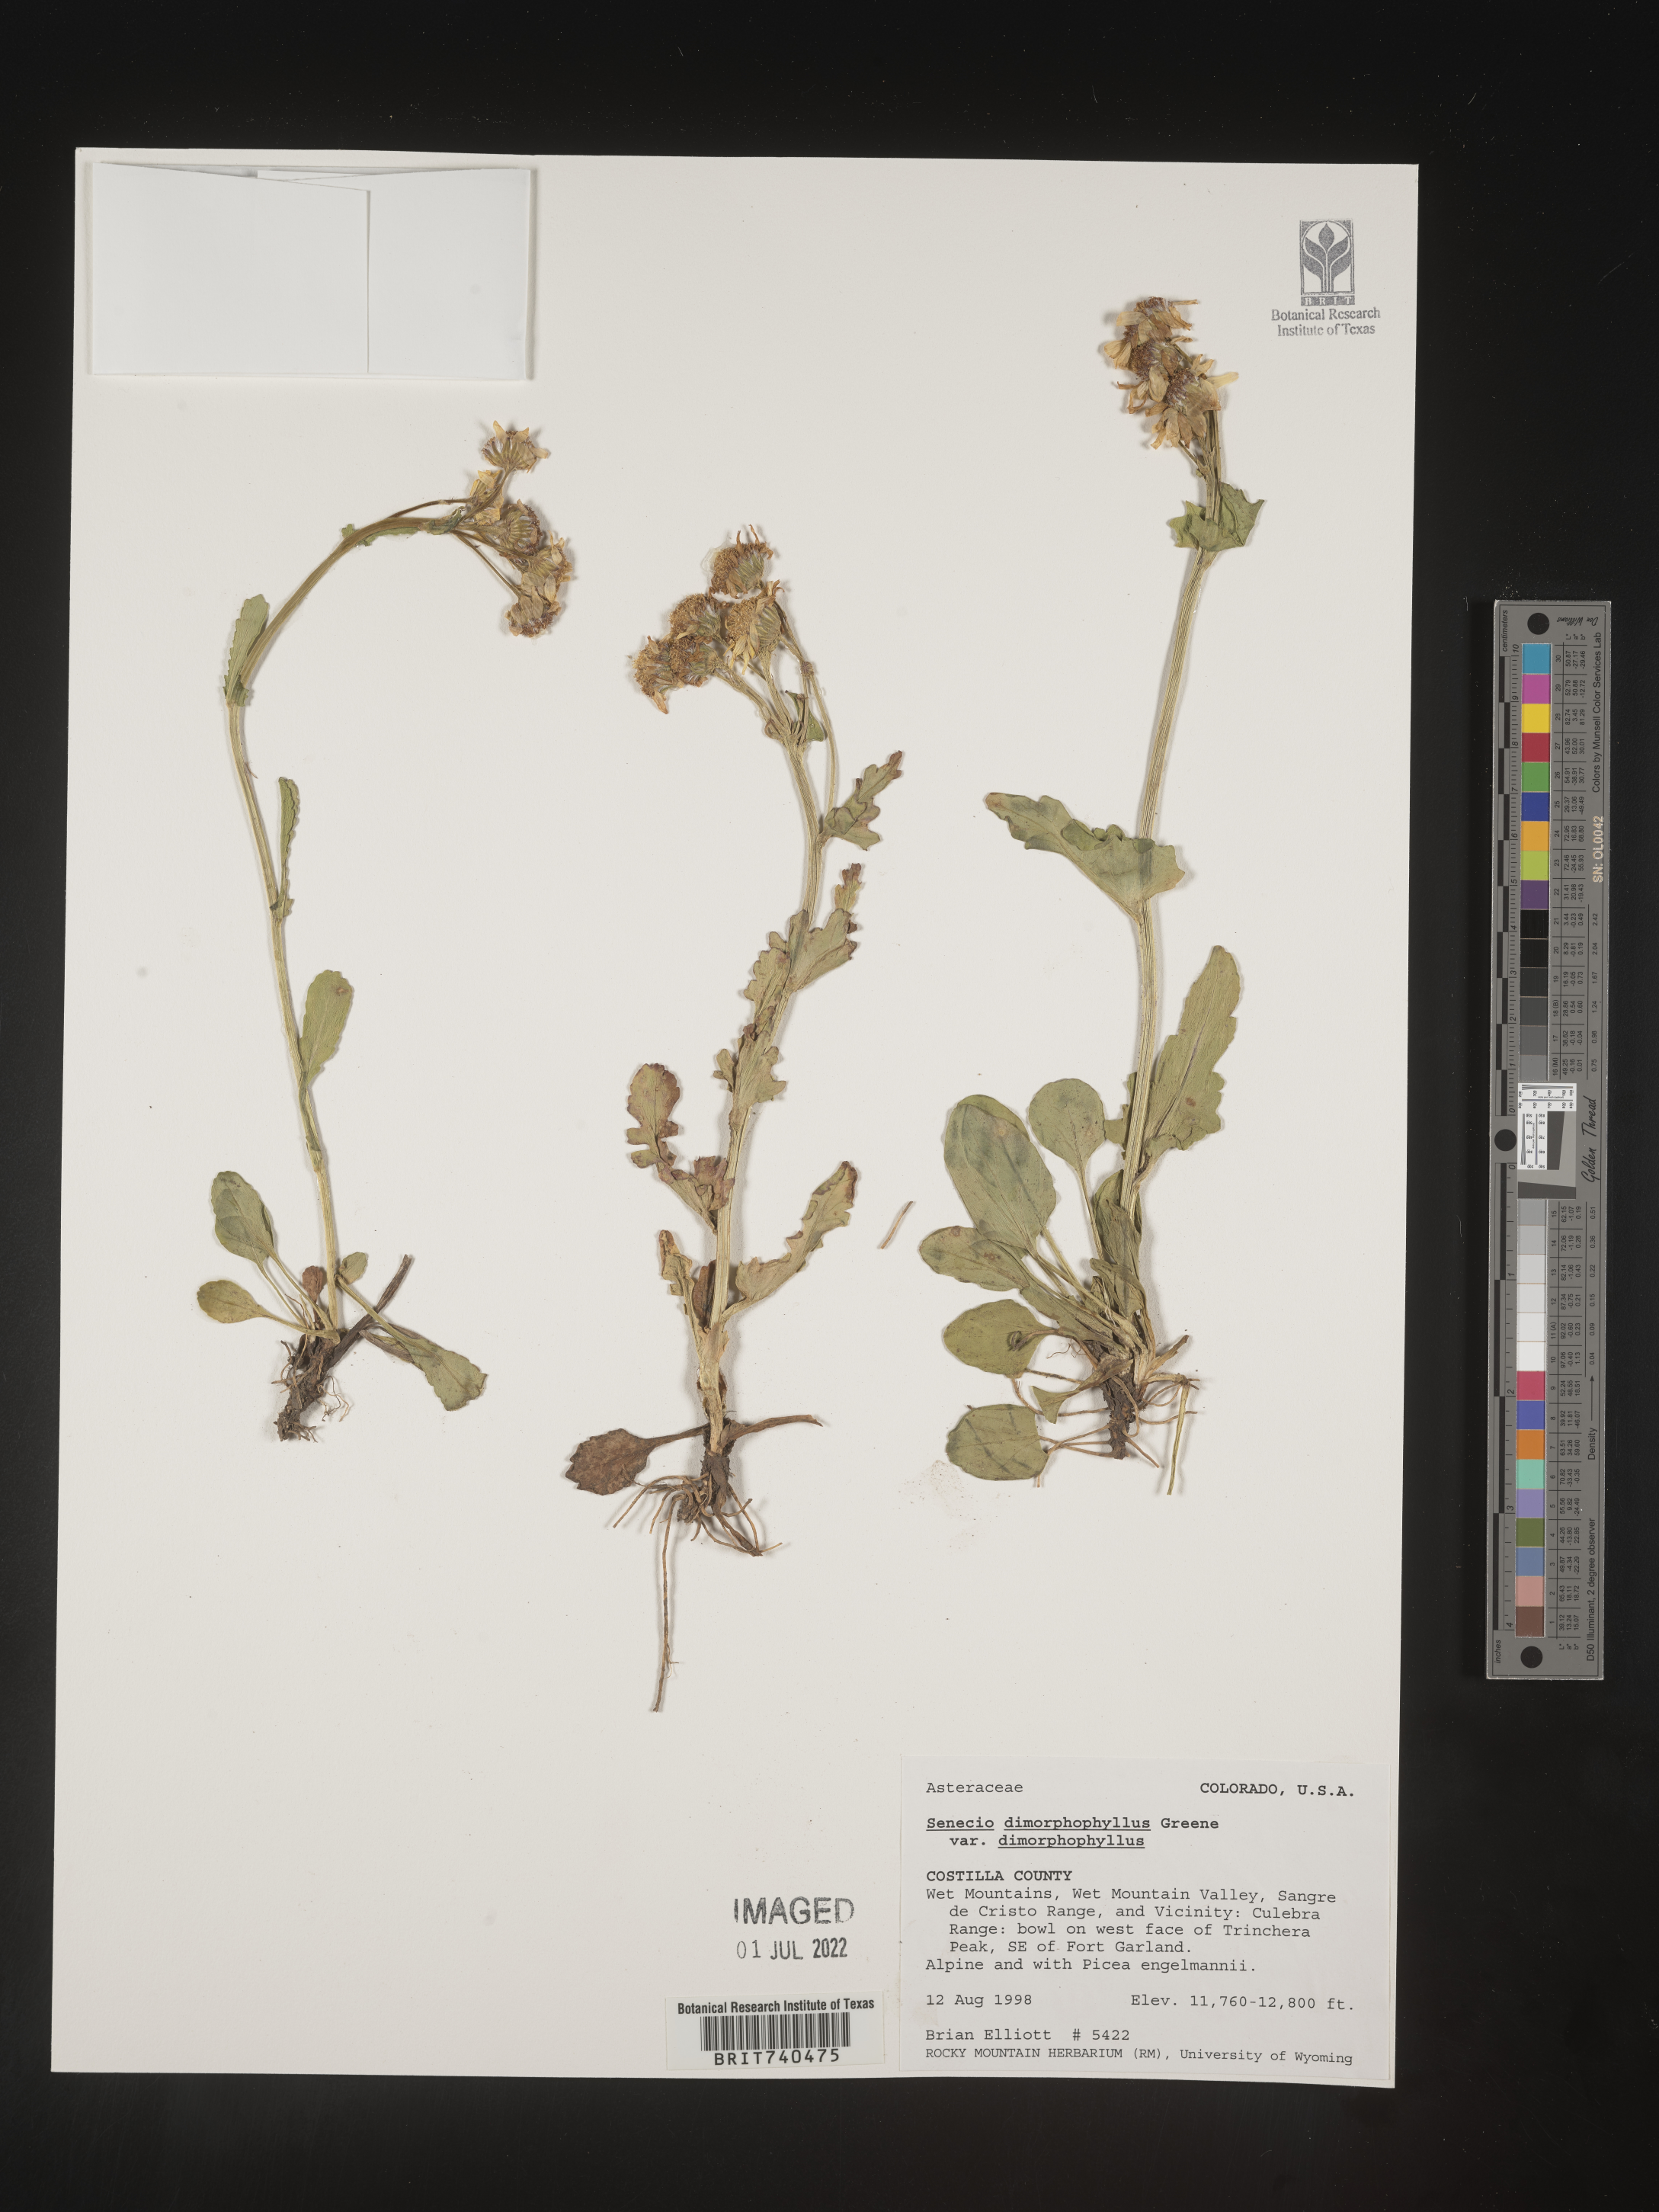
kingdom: Plantae
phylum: Tracheophyta
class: Magnoliopsida
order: Asterales
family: Asteraceae
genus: Packera
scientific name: Packera dimorphophylla
